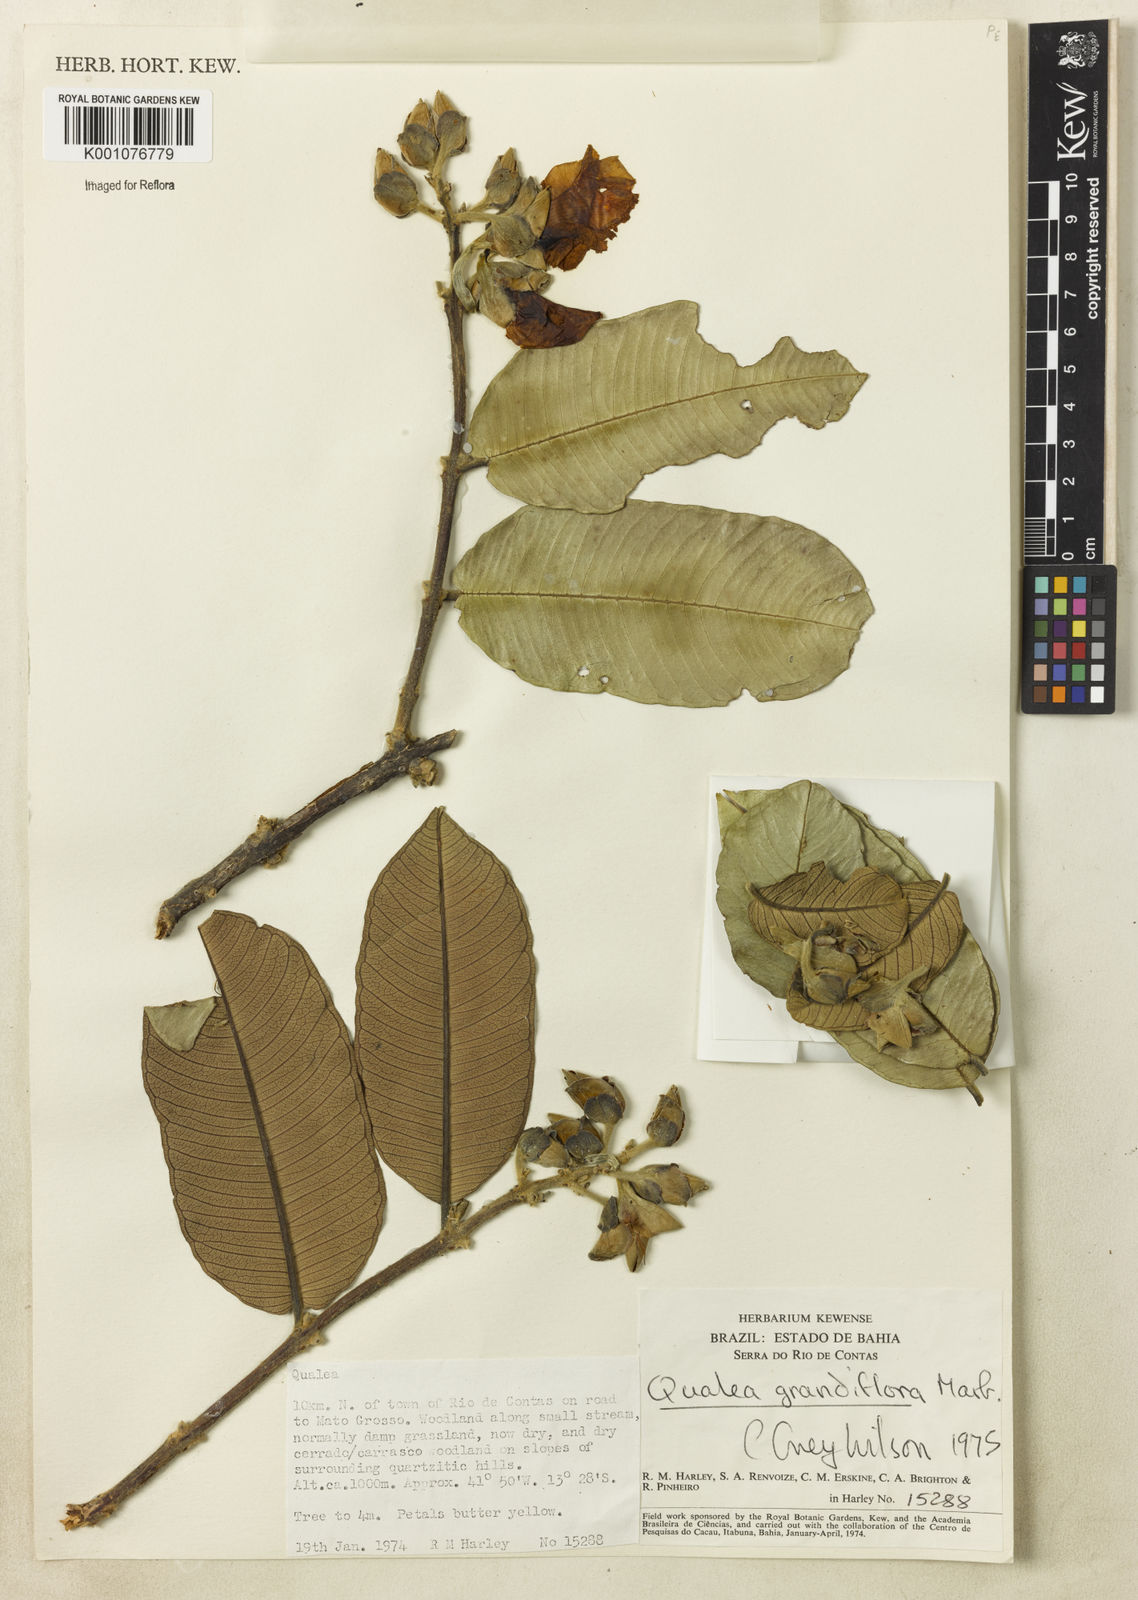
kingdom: Plantae
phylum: Tracheophyta
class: Magnoliopsida
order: Myrtales
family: Vochysiaceae
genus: Qualea
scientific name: Qualea grandiflora
